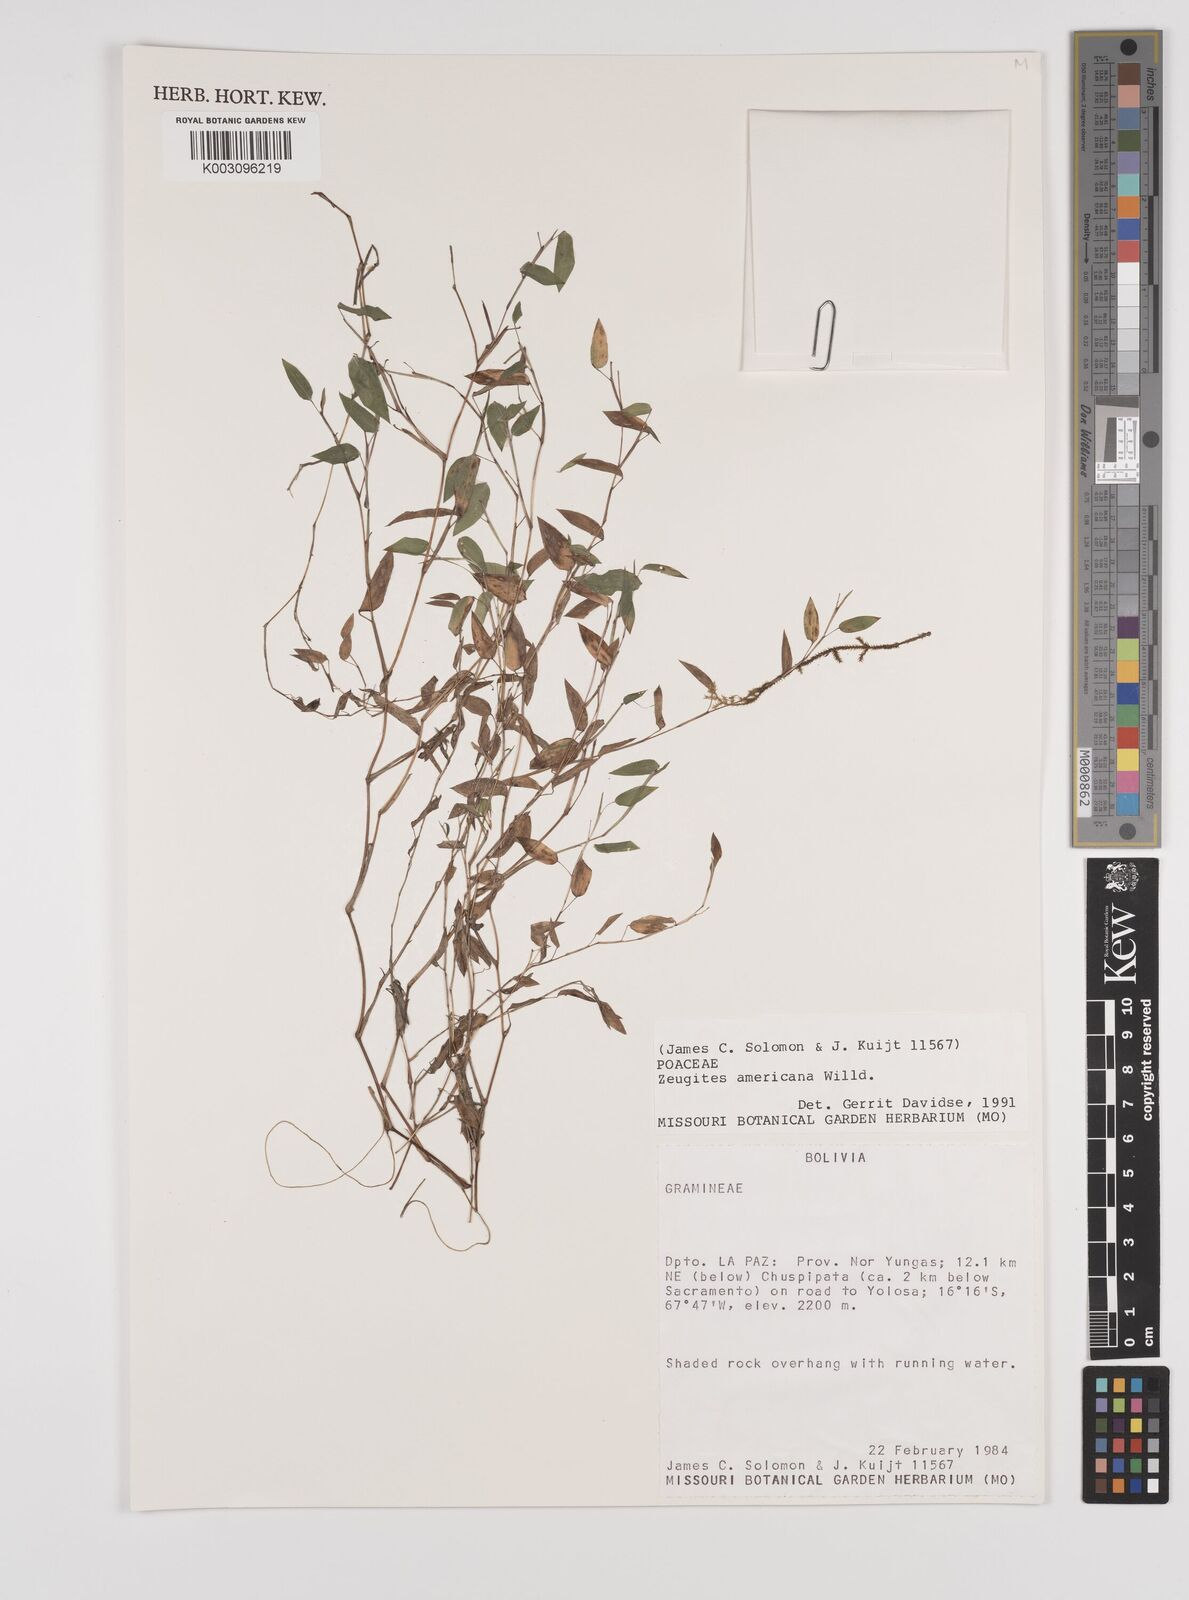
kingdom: Plantae
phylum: Tracheophyta
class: Liliopsida
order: Poales
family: Poaceae
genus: Zeugites
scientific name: Zeugites americanus
